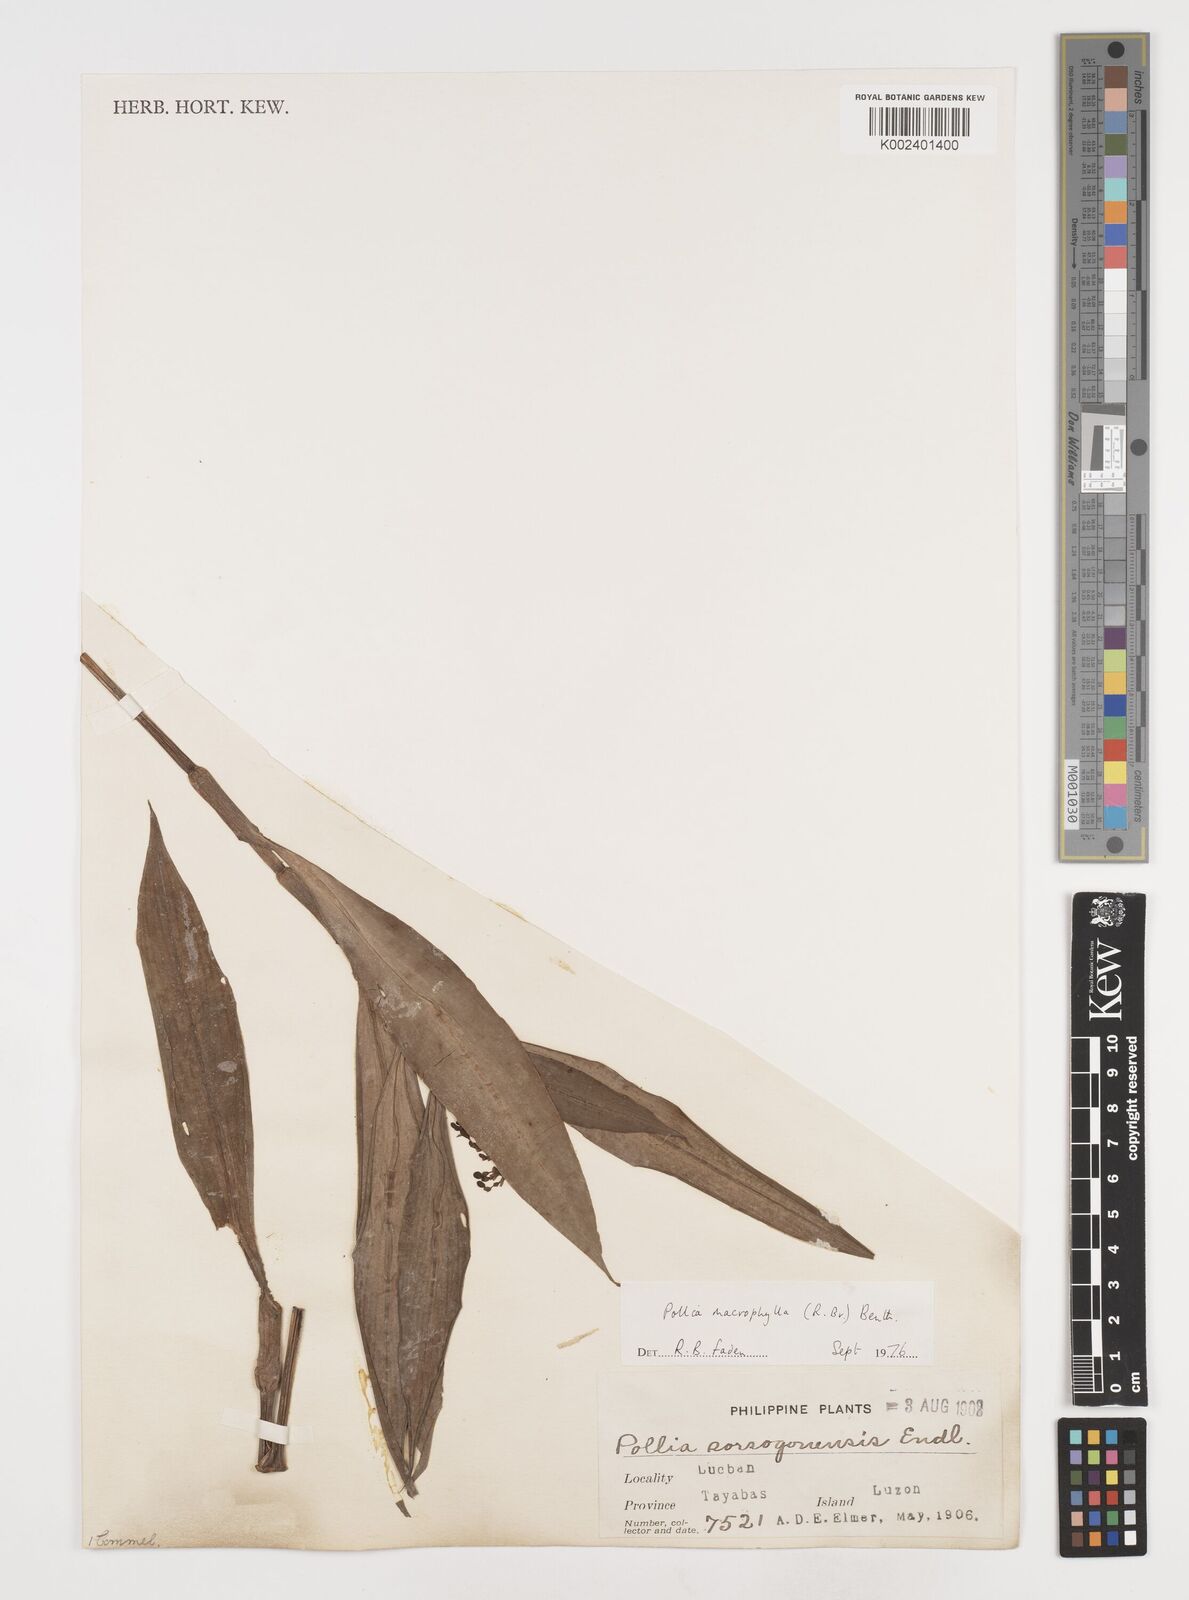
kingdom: Plantae
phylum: Tracheophyta
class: Liliopsida
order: Commelinales
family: Commelinaceae
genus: Pollia
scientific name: Pollia macrophylla
